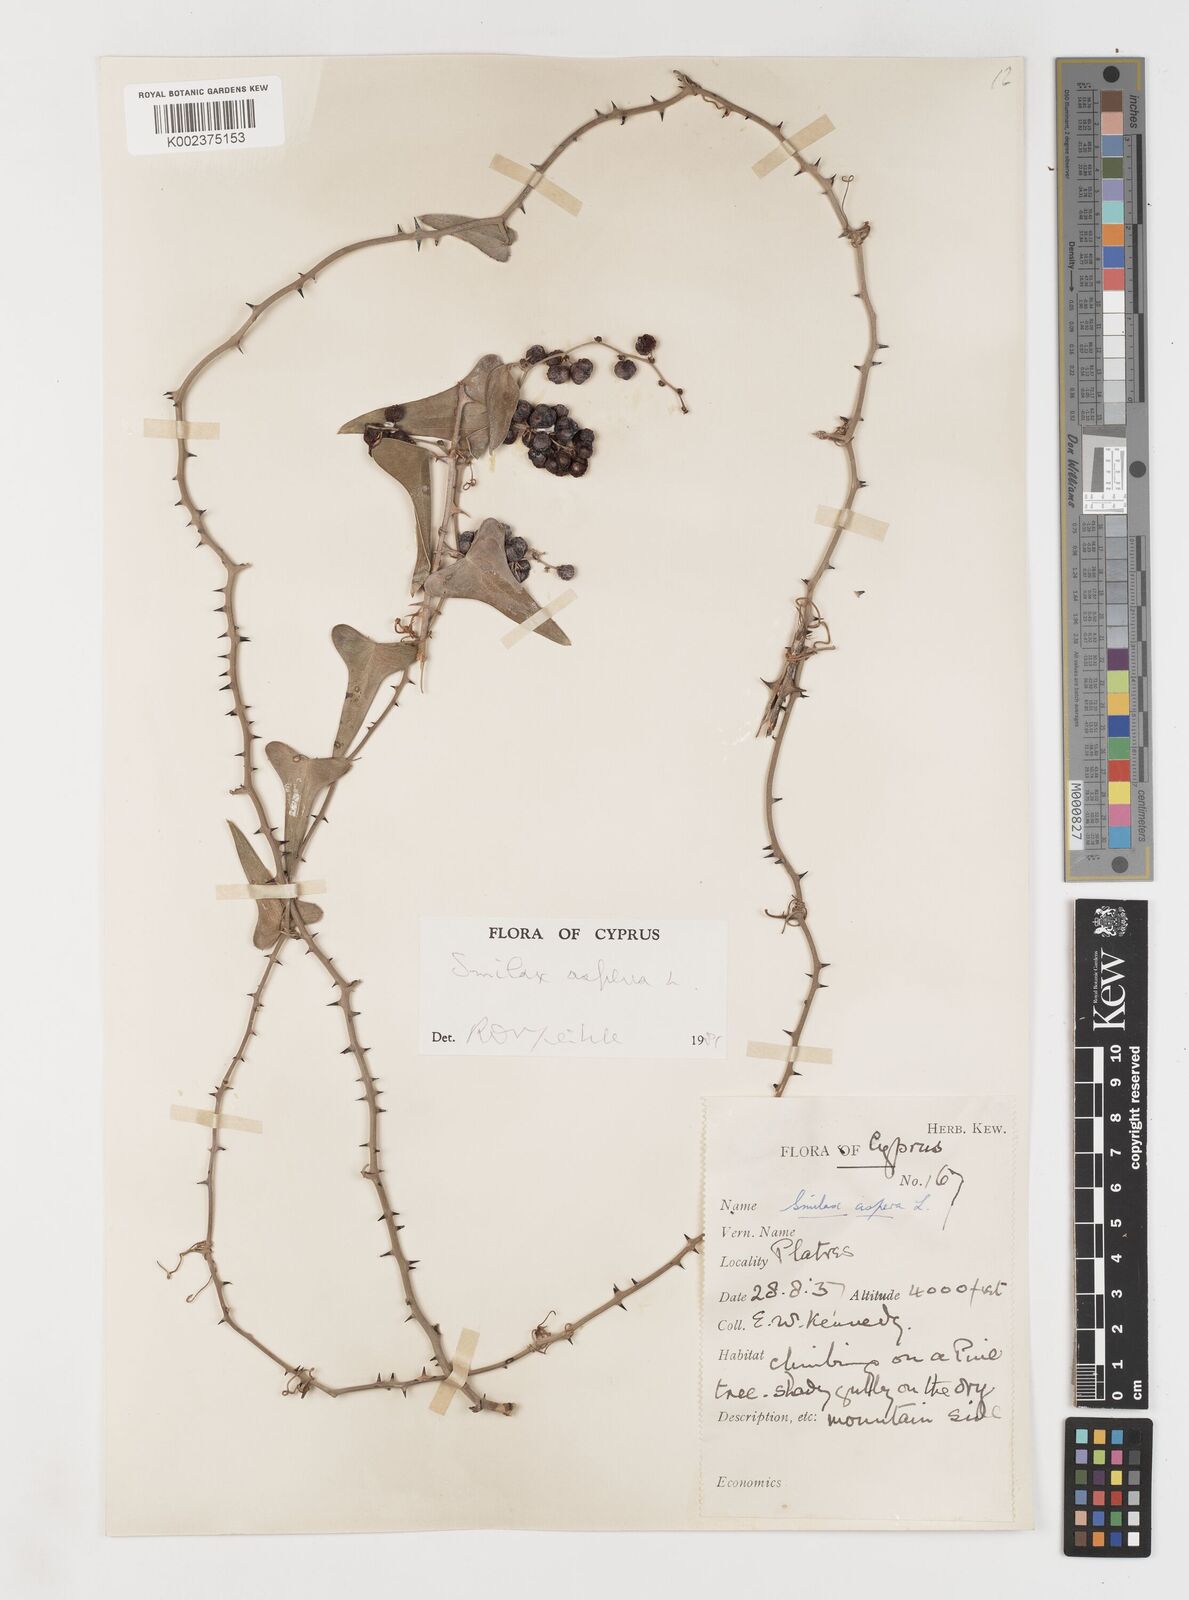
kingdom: Plantae
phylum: Tracheophyta
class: Liliopsida
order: Liliales
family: Smilacaceae
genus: Smilax
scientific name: Smilax aspera
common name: Common smilax
